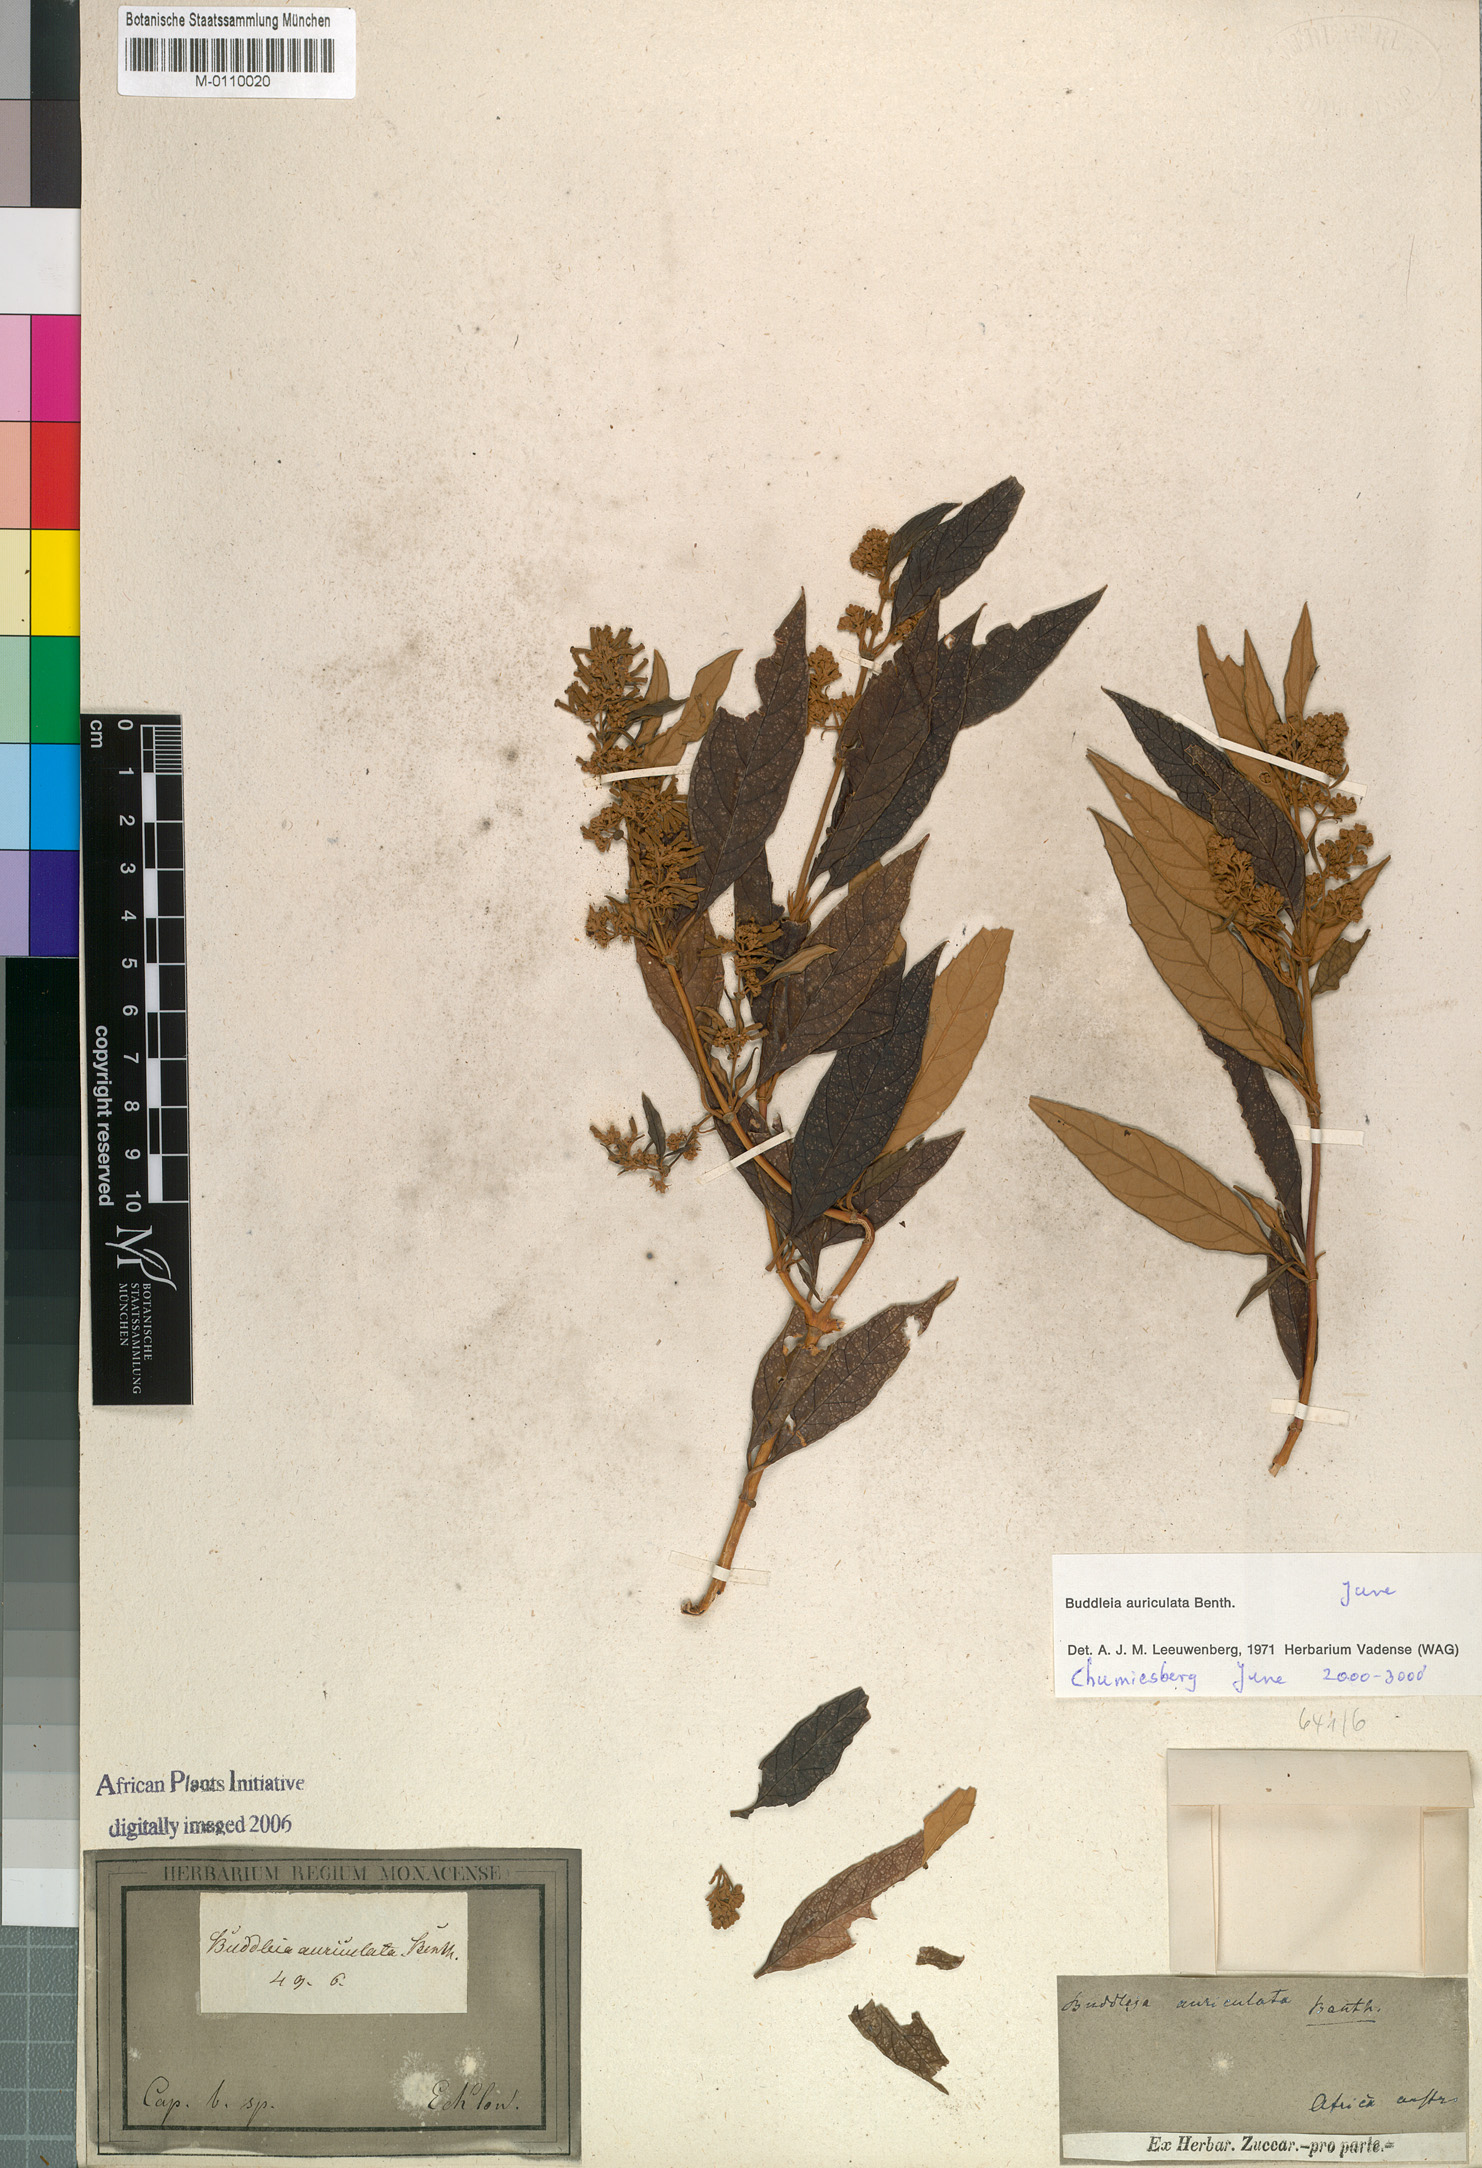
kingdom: Plantae
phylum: Tracheophyta
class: Magnoliopsida
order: Lamiales
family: Scrophulariaceae
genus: Buddleja
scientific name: Buddleja auriculata
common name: Weeping sagewood
